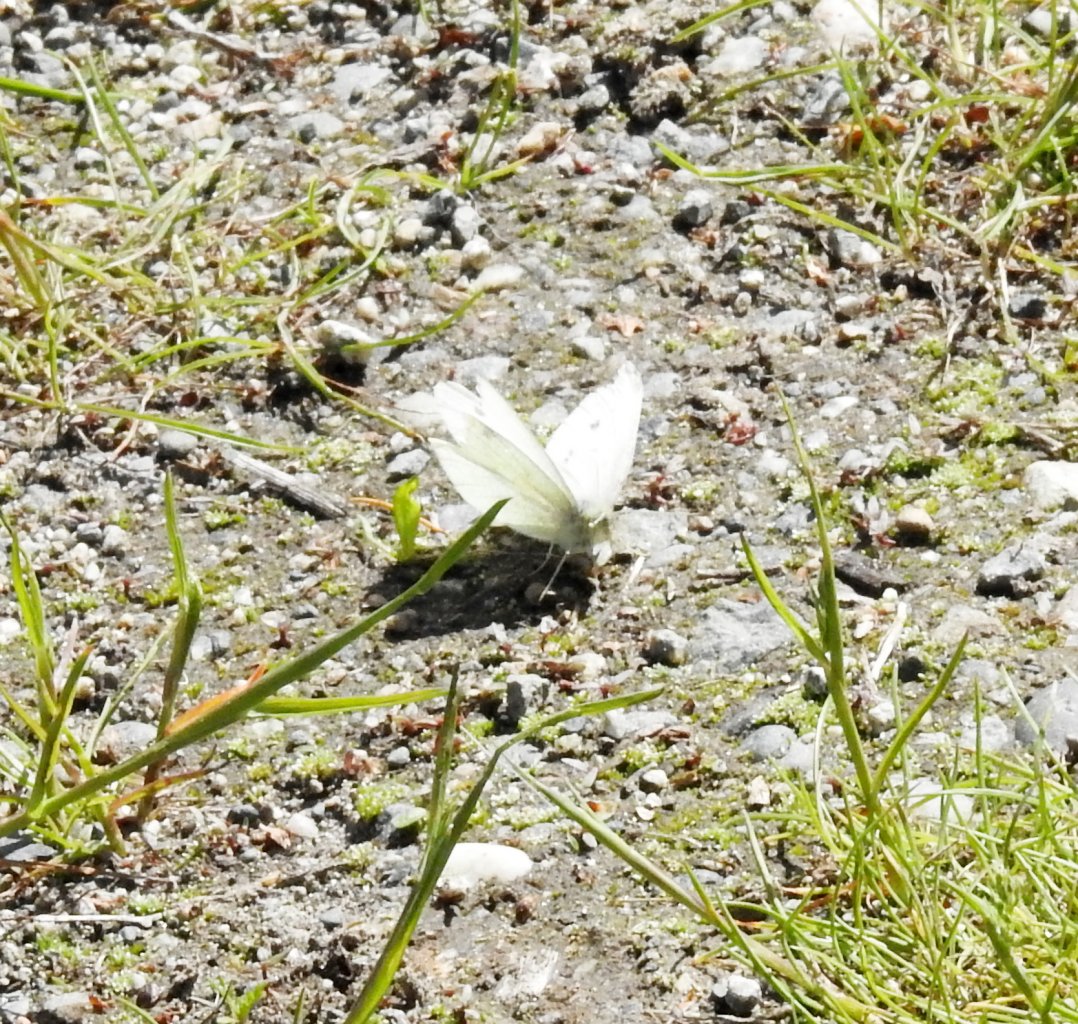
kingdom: Animalia
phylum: Arthropoda
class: Insecta
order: Lepidoptera
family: Pieridae
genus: Pieris
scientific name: Pieris rapae
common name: Cabbage White
